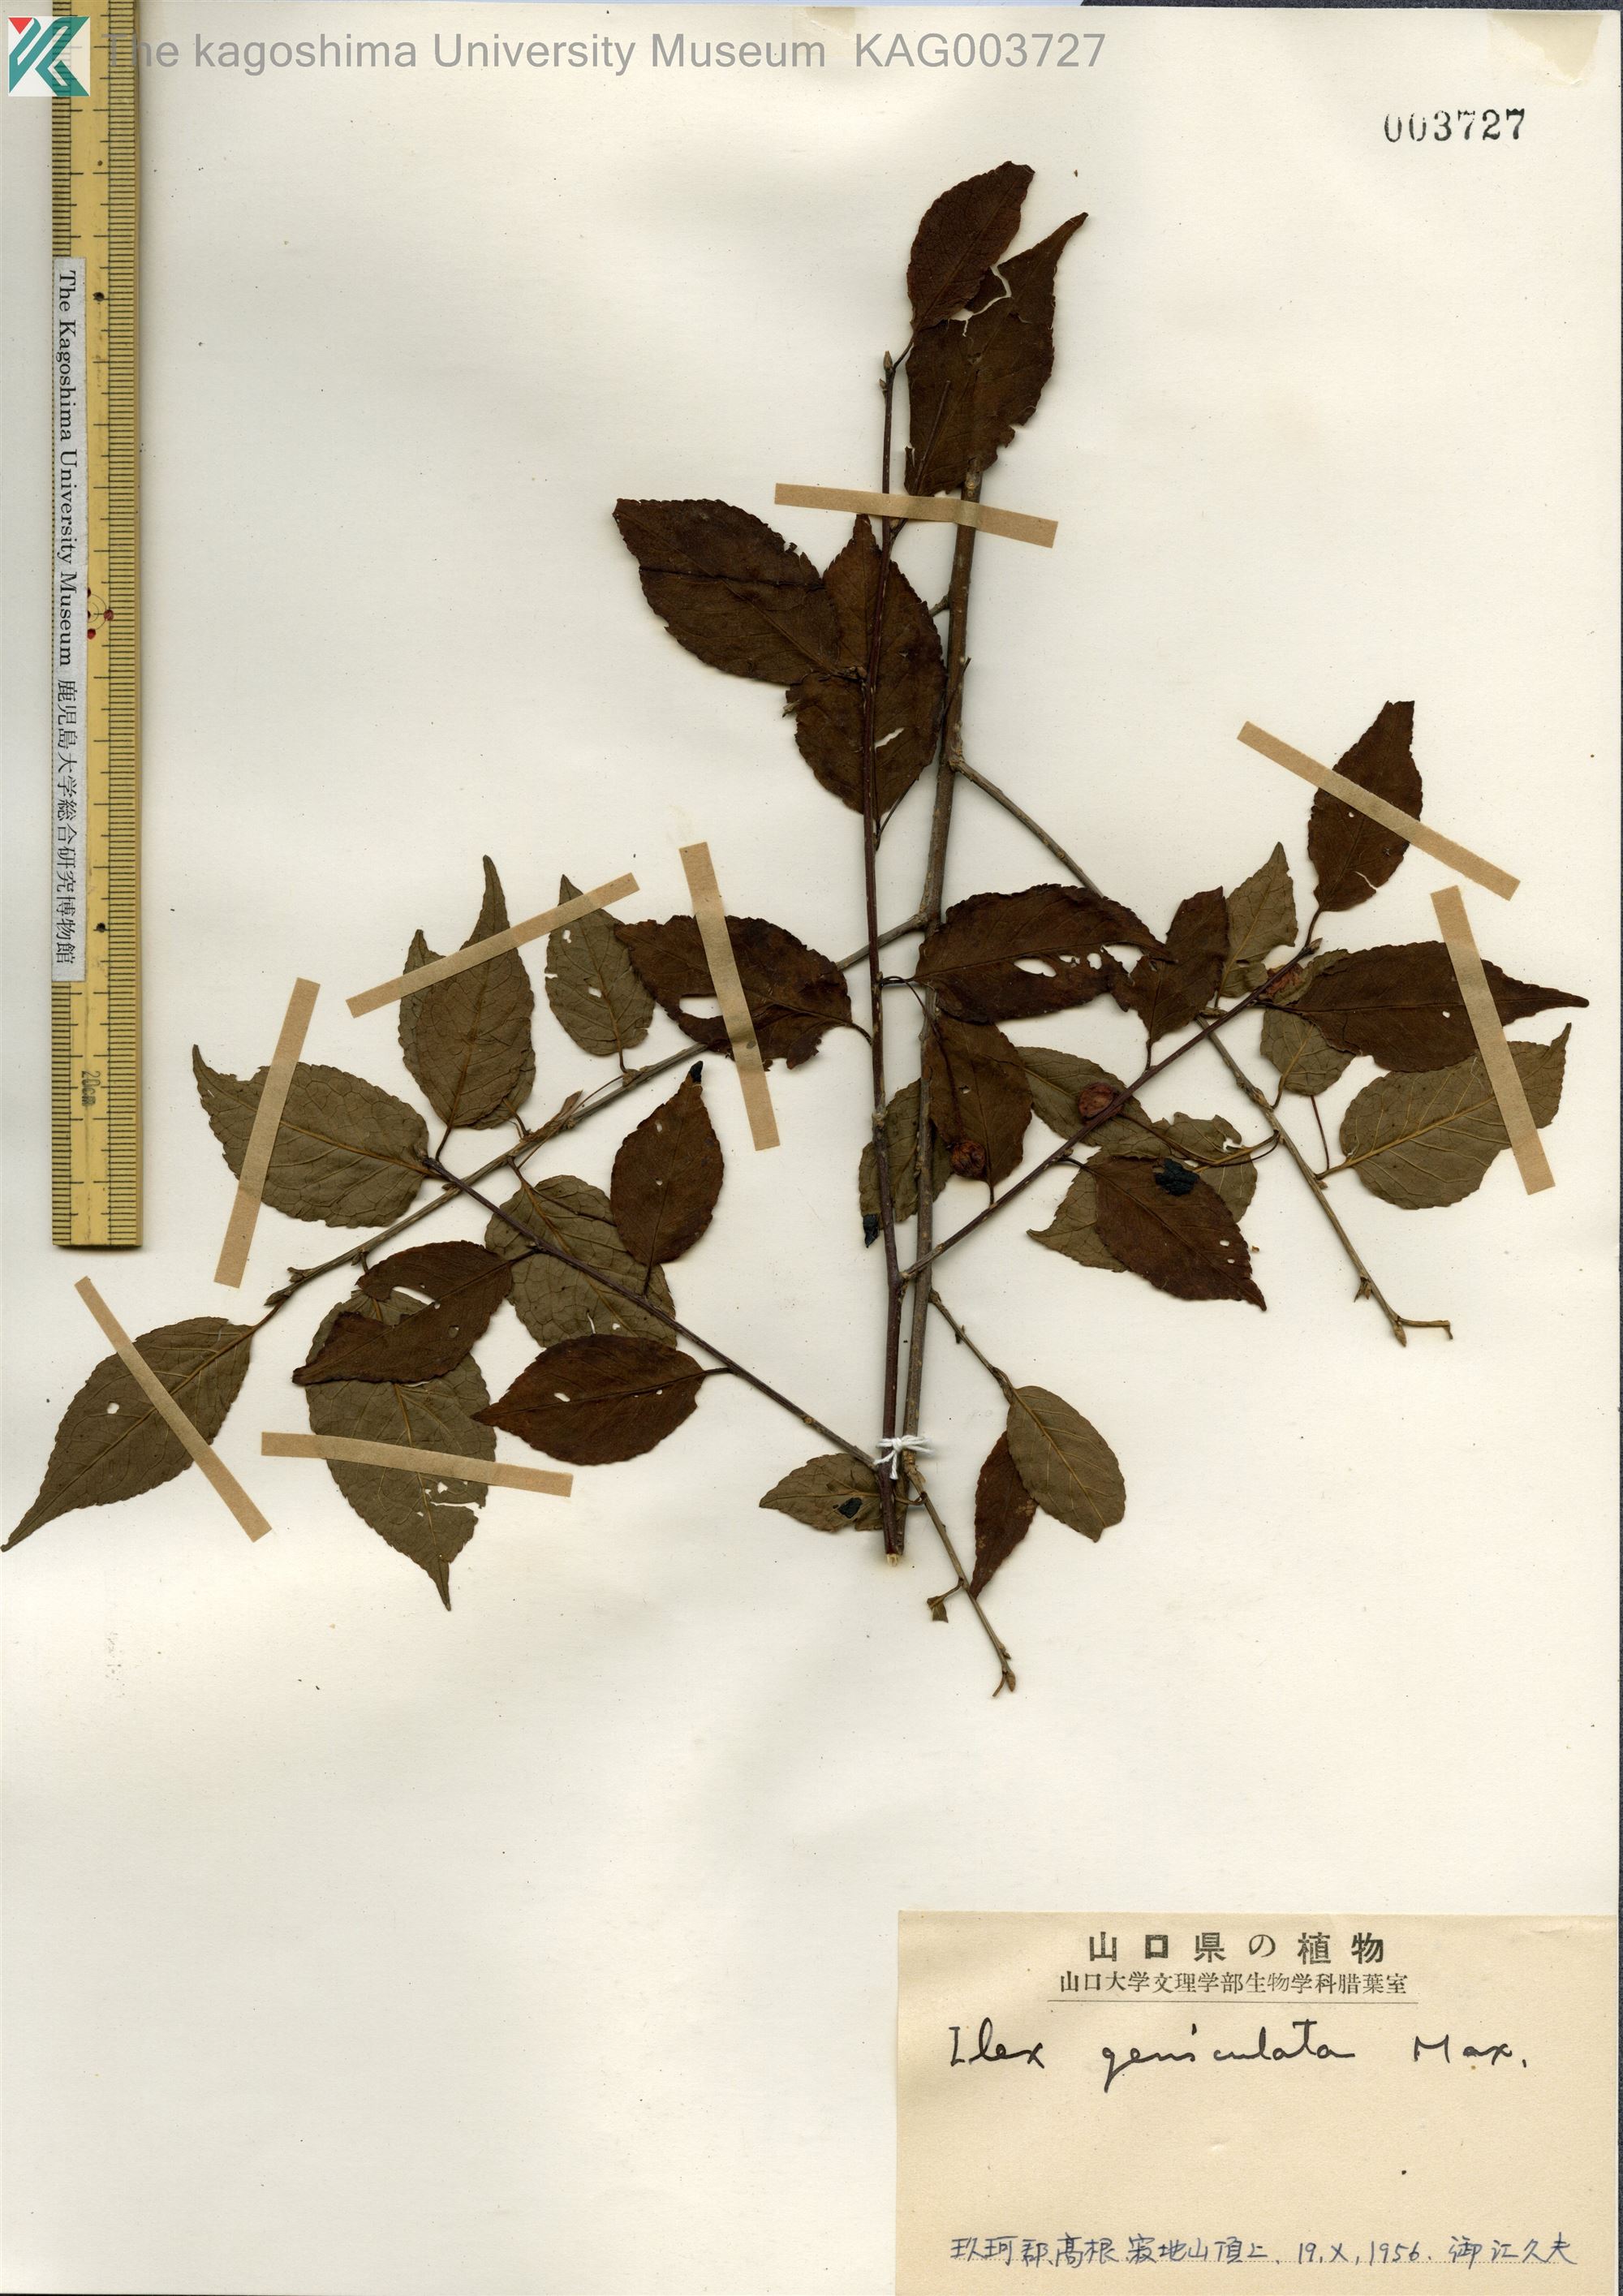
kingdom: Plantae
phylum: Tracheophyta
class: Magnoliopsida
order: Aquifoliales
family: Aquifoliaceae
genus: Ilex
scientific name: Ilex geniculata
